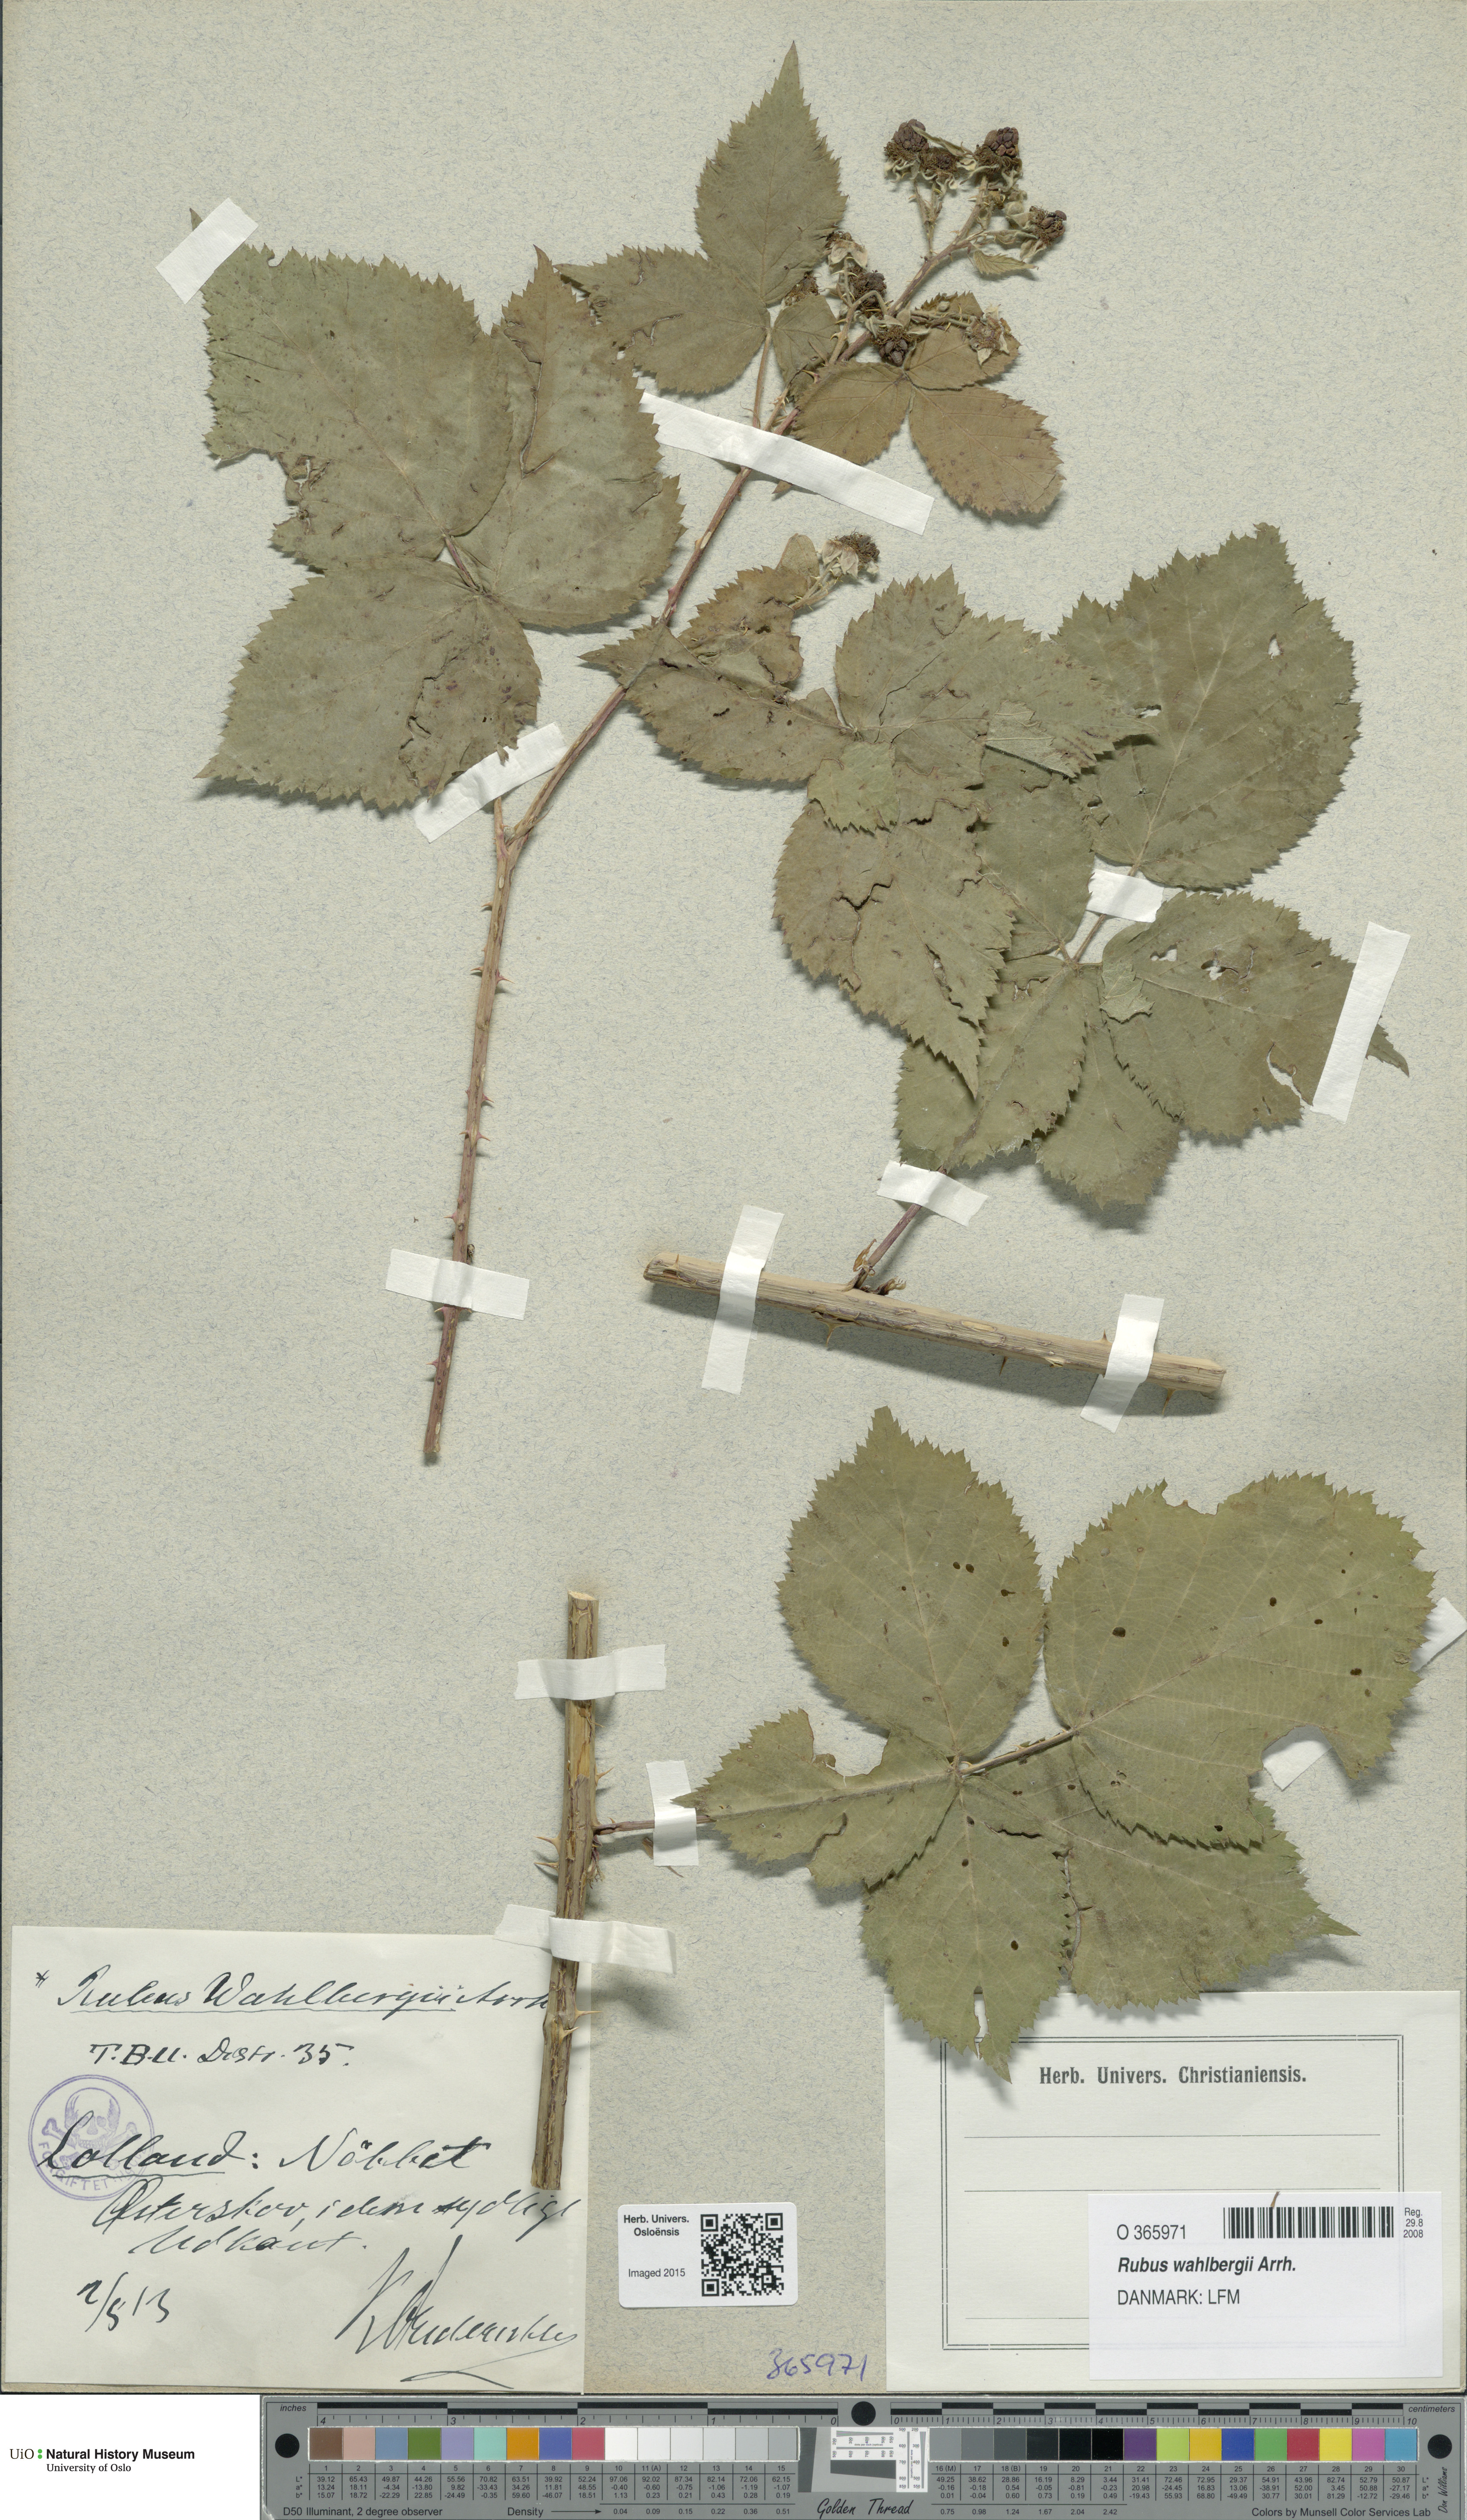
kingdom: Plantae
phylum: Tracheophyta
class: Magnoliopsida
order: Rosales
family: Rosaceae
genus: Rubus
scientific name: Rubus wahlbergii
